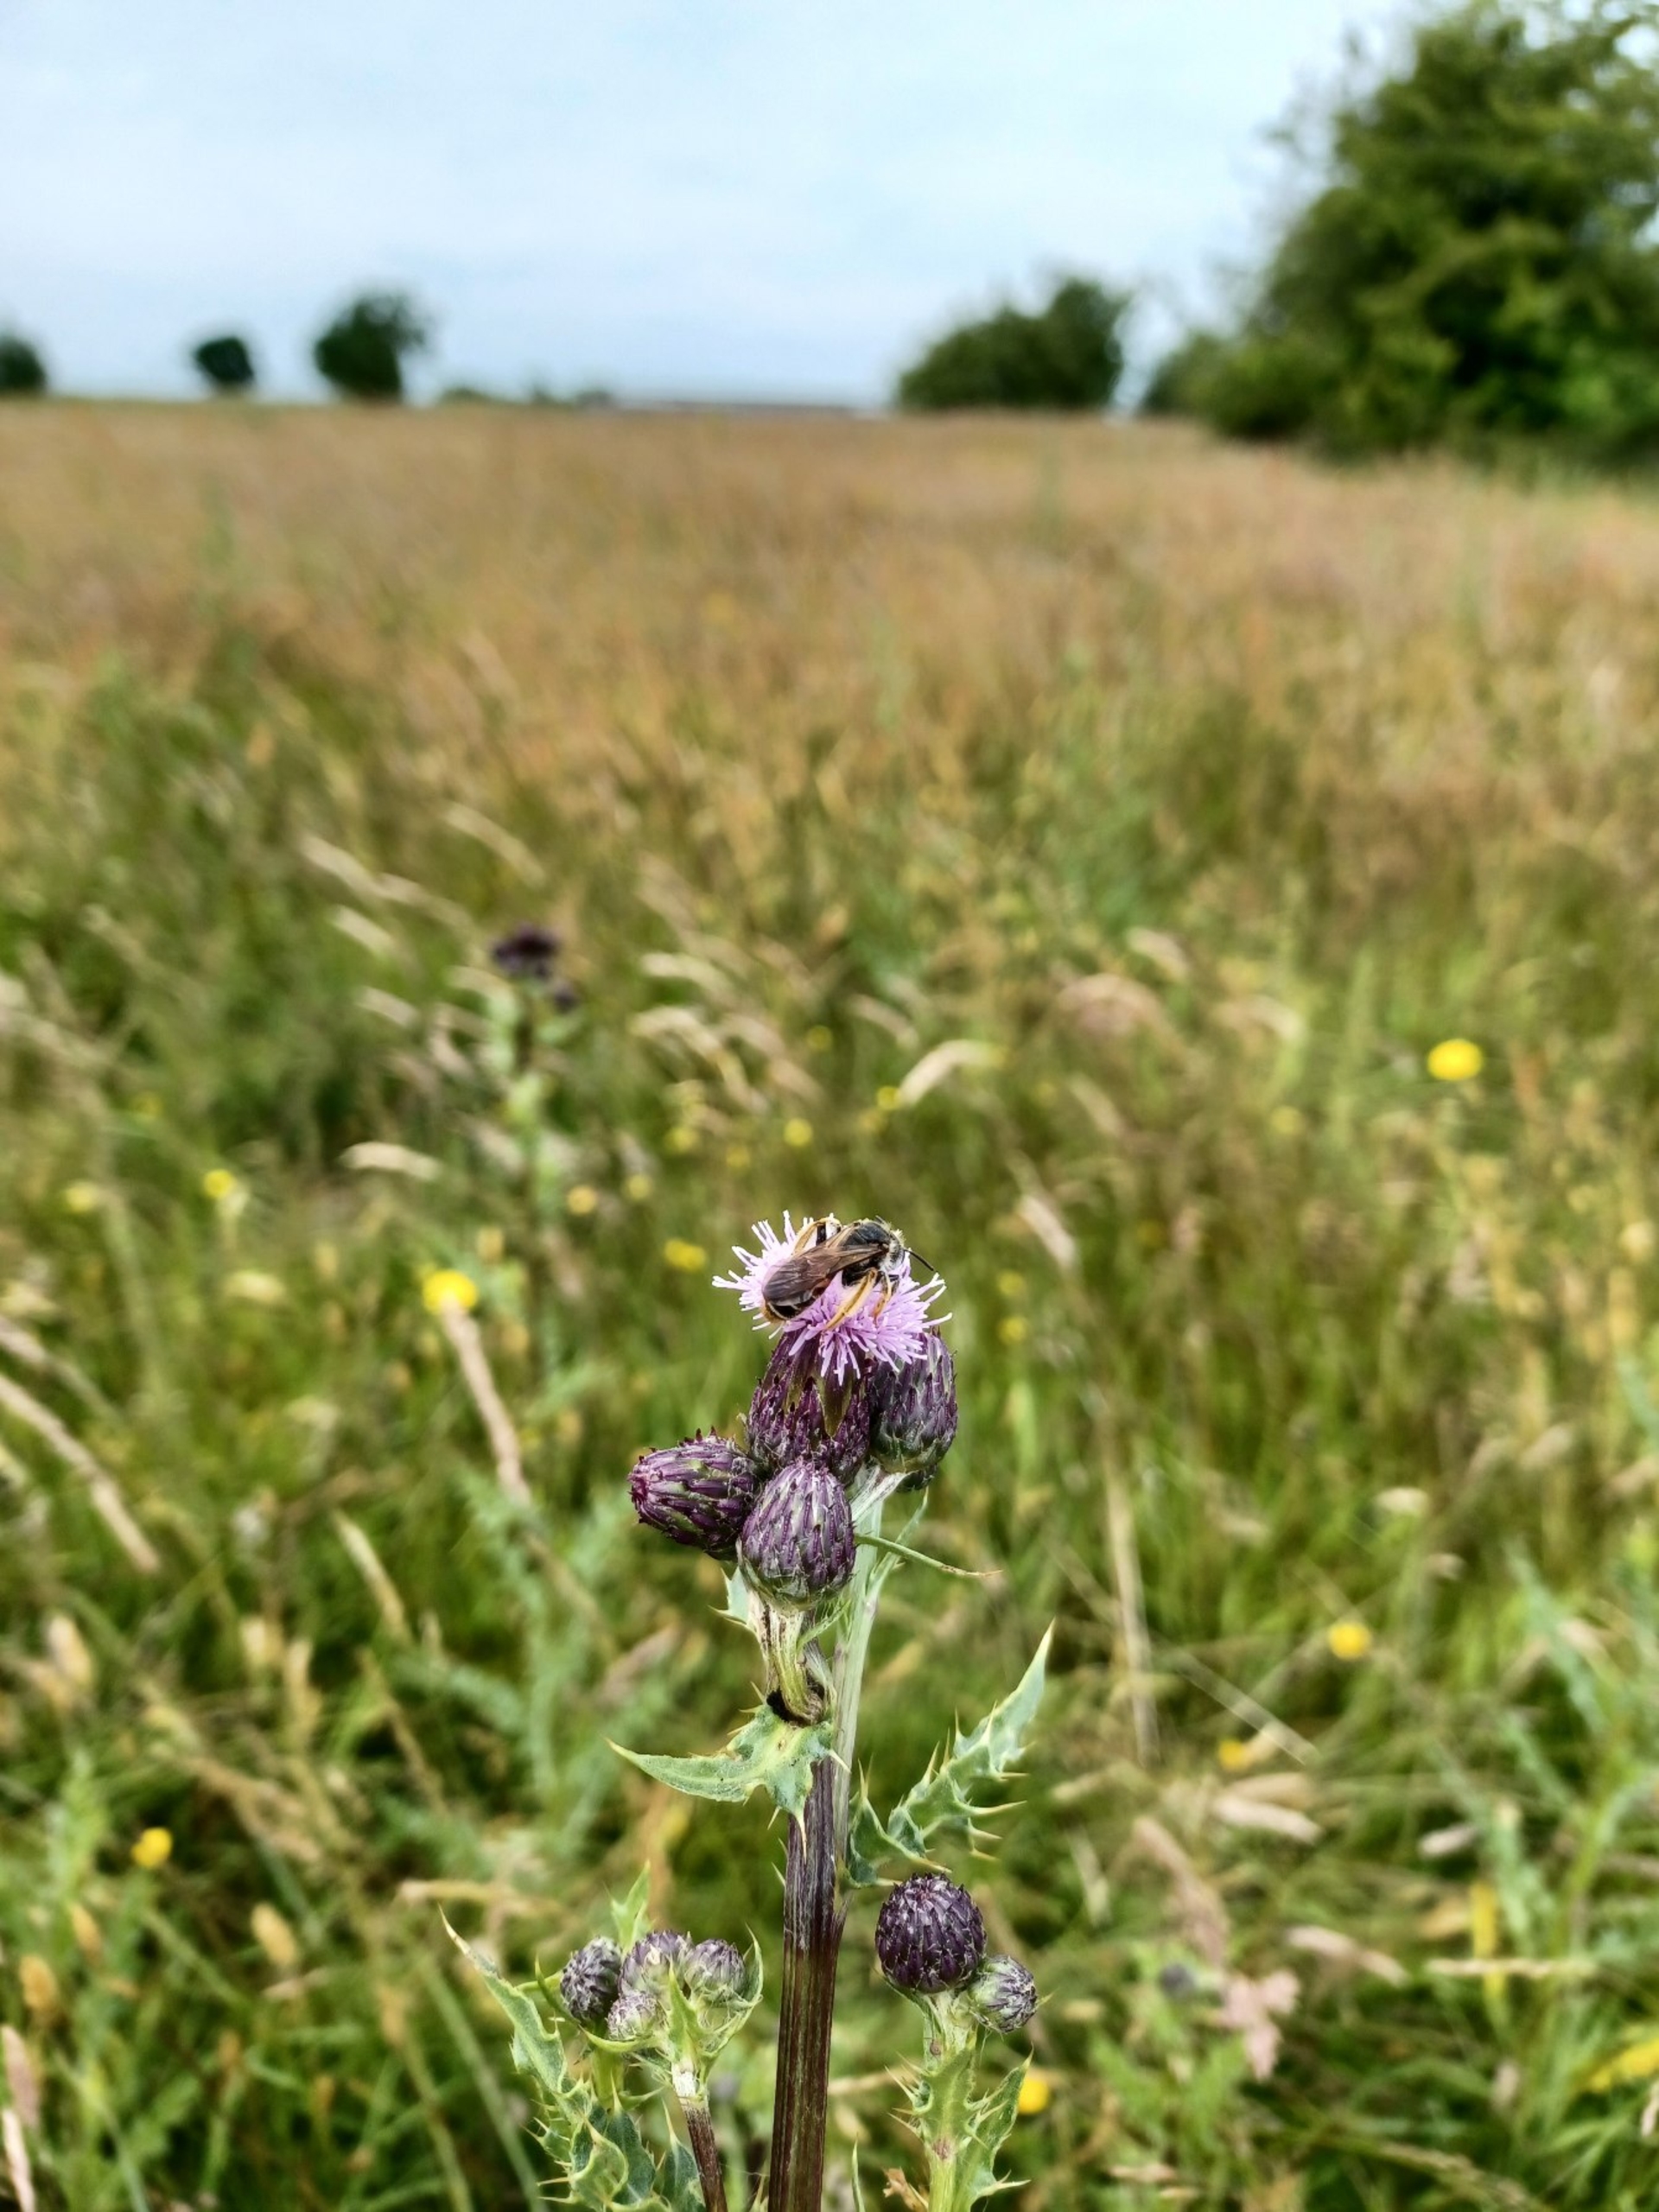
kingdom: Animalia
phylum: Arthropoda
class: Insecta
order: Hymenoptera
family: Andrenidae
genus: Andrena
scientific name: Andrena hattorfiana
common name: Blåhatjordbi
